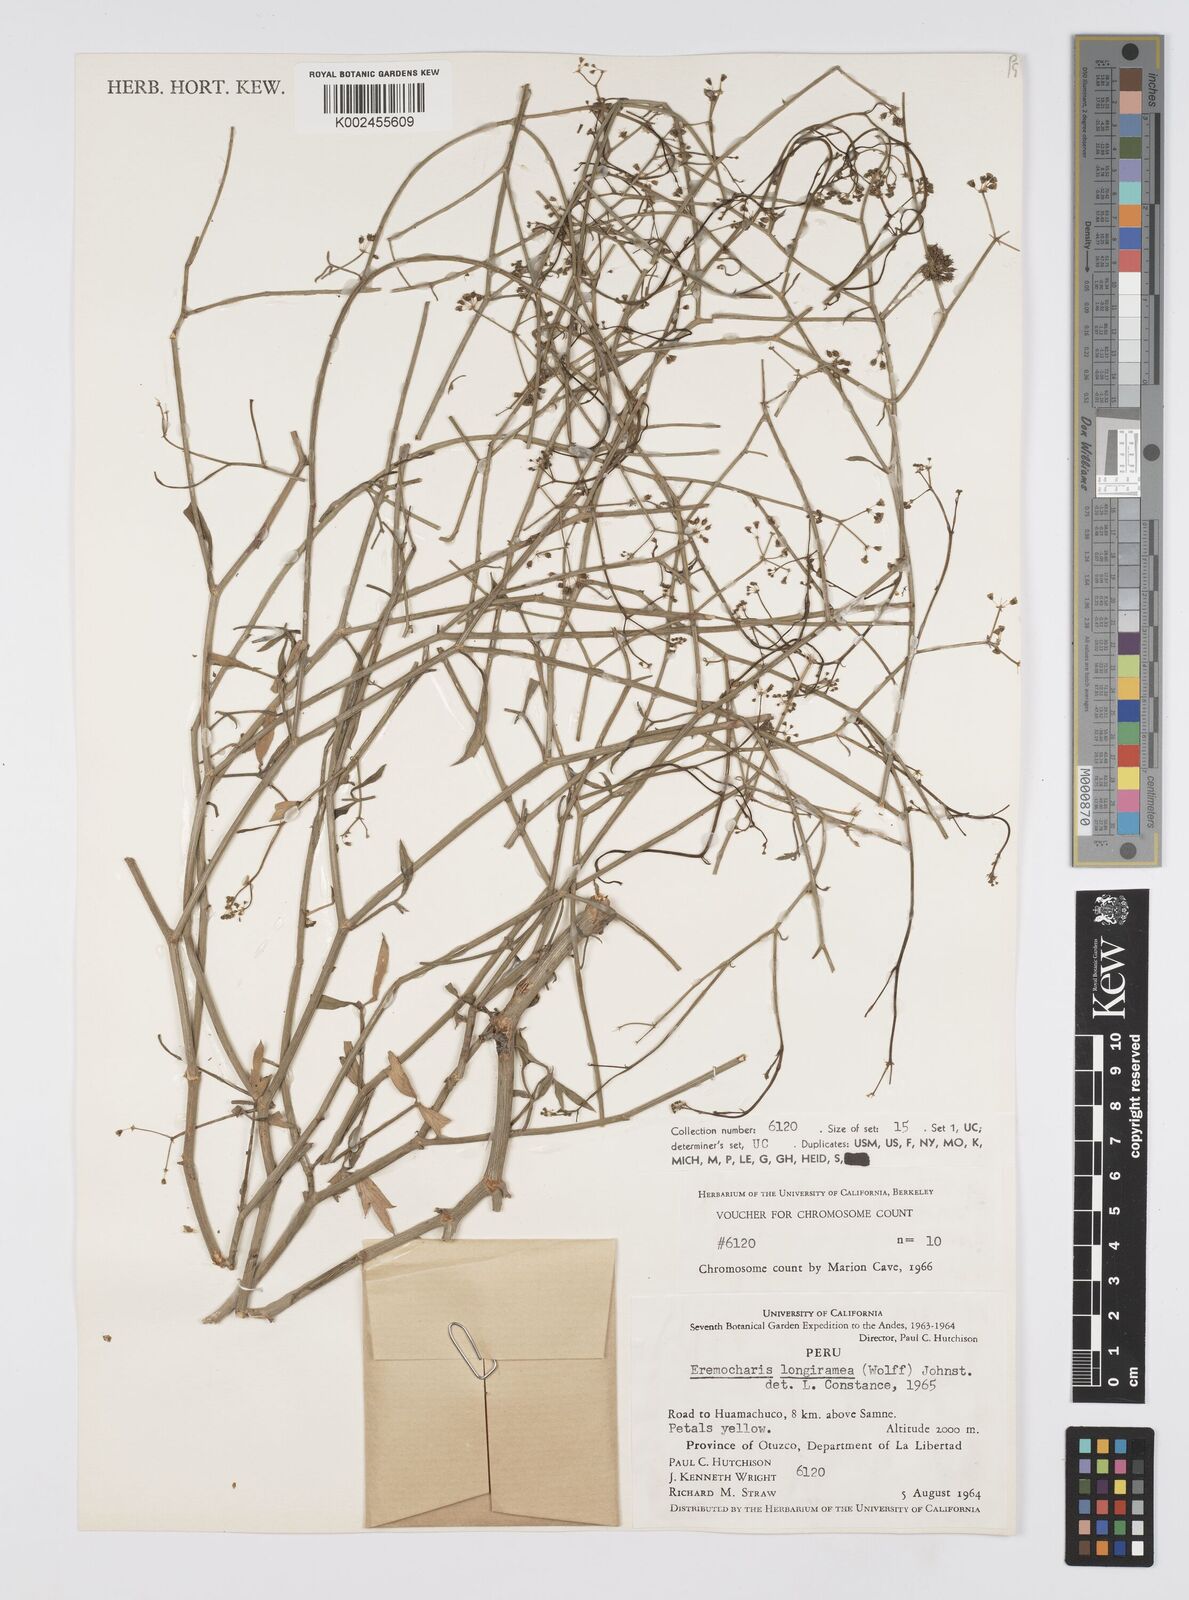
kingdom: Plantae
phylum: Tracheophyta
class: Magnoliopsida
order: Apiales
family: Apiaceae
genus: Eremocharis
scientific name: Eremocharis longiramea
